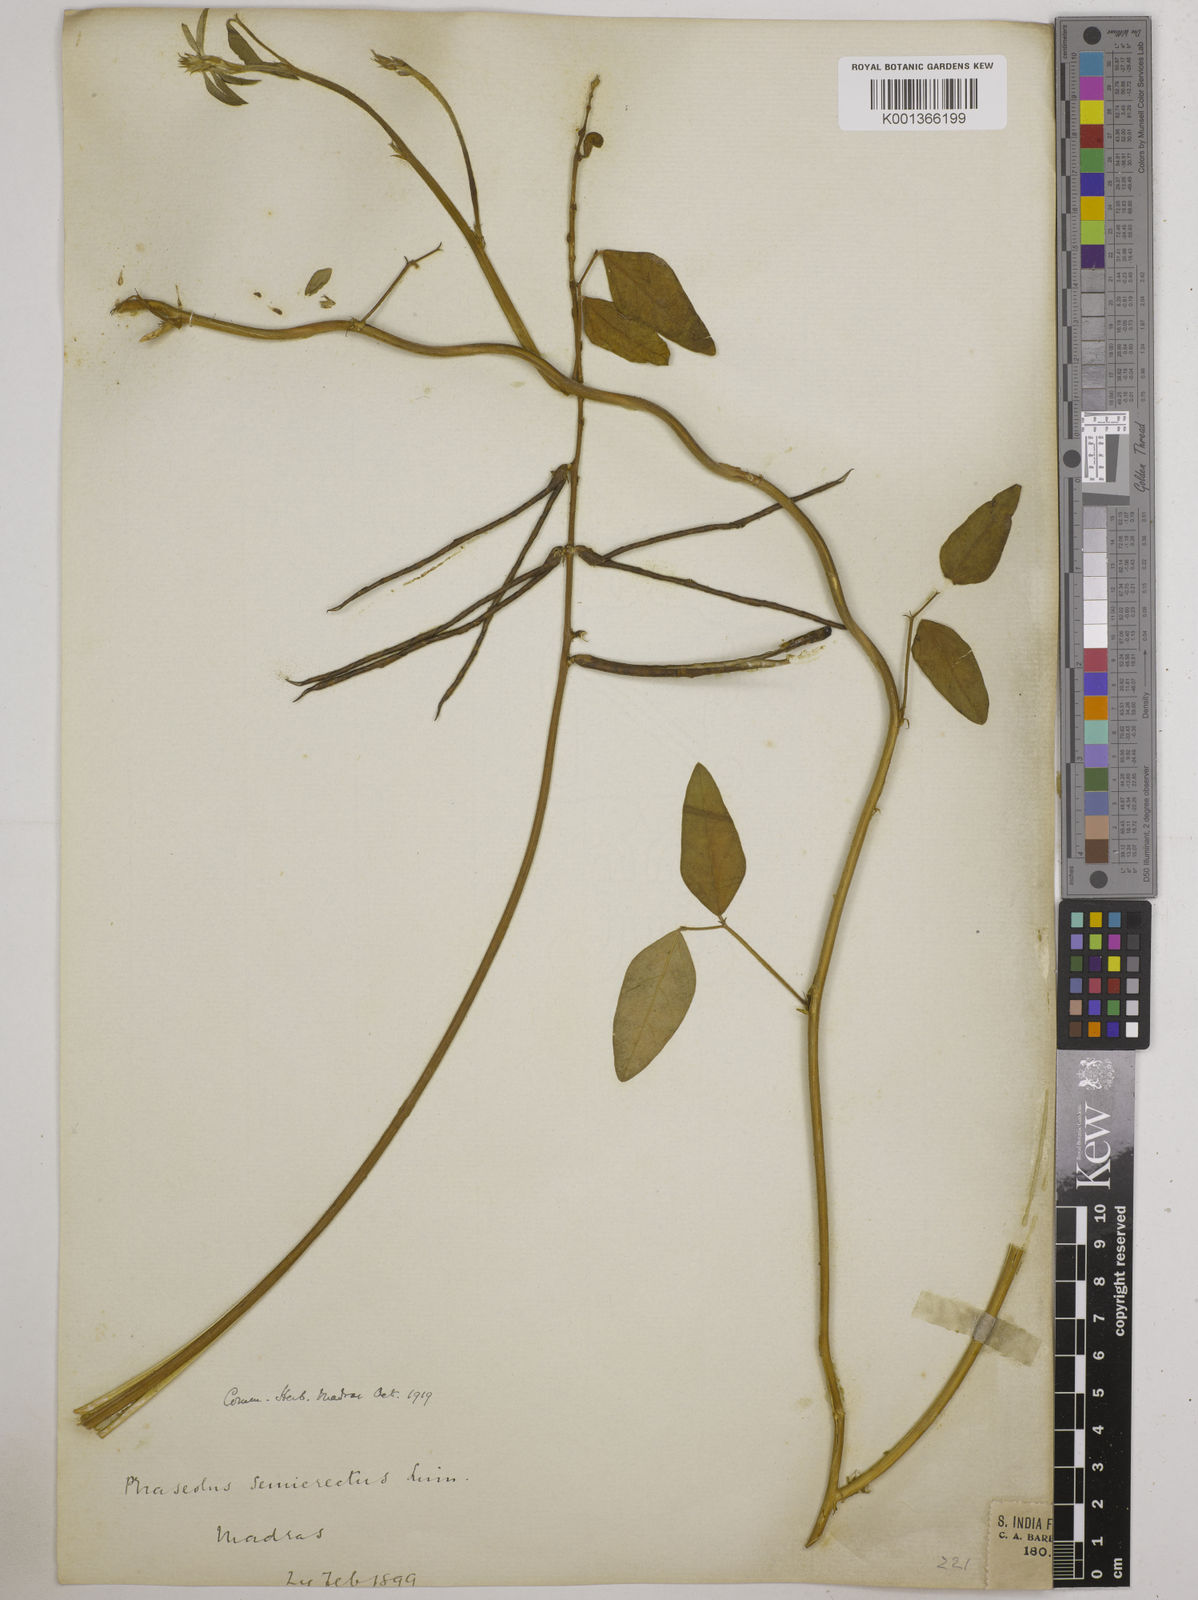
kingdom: Plantae
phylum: Tracheophyta
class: Magnoliopsida
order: Fabales
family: Fabaceae
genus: Macroptilium
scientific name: Macroptilium lathyroides
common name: Wild bushbean
